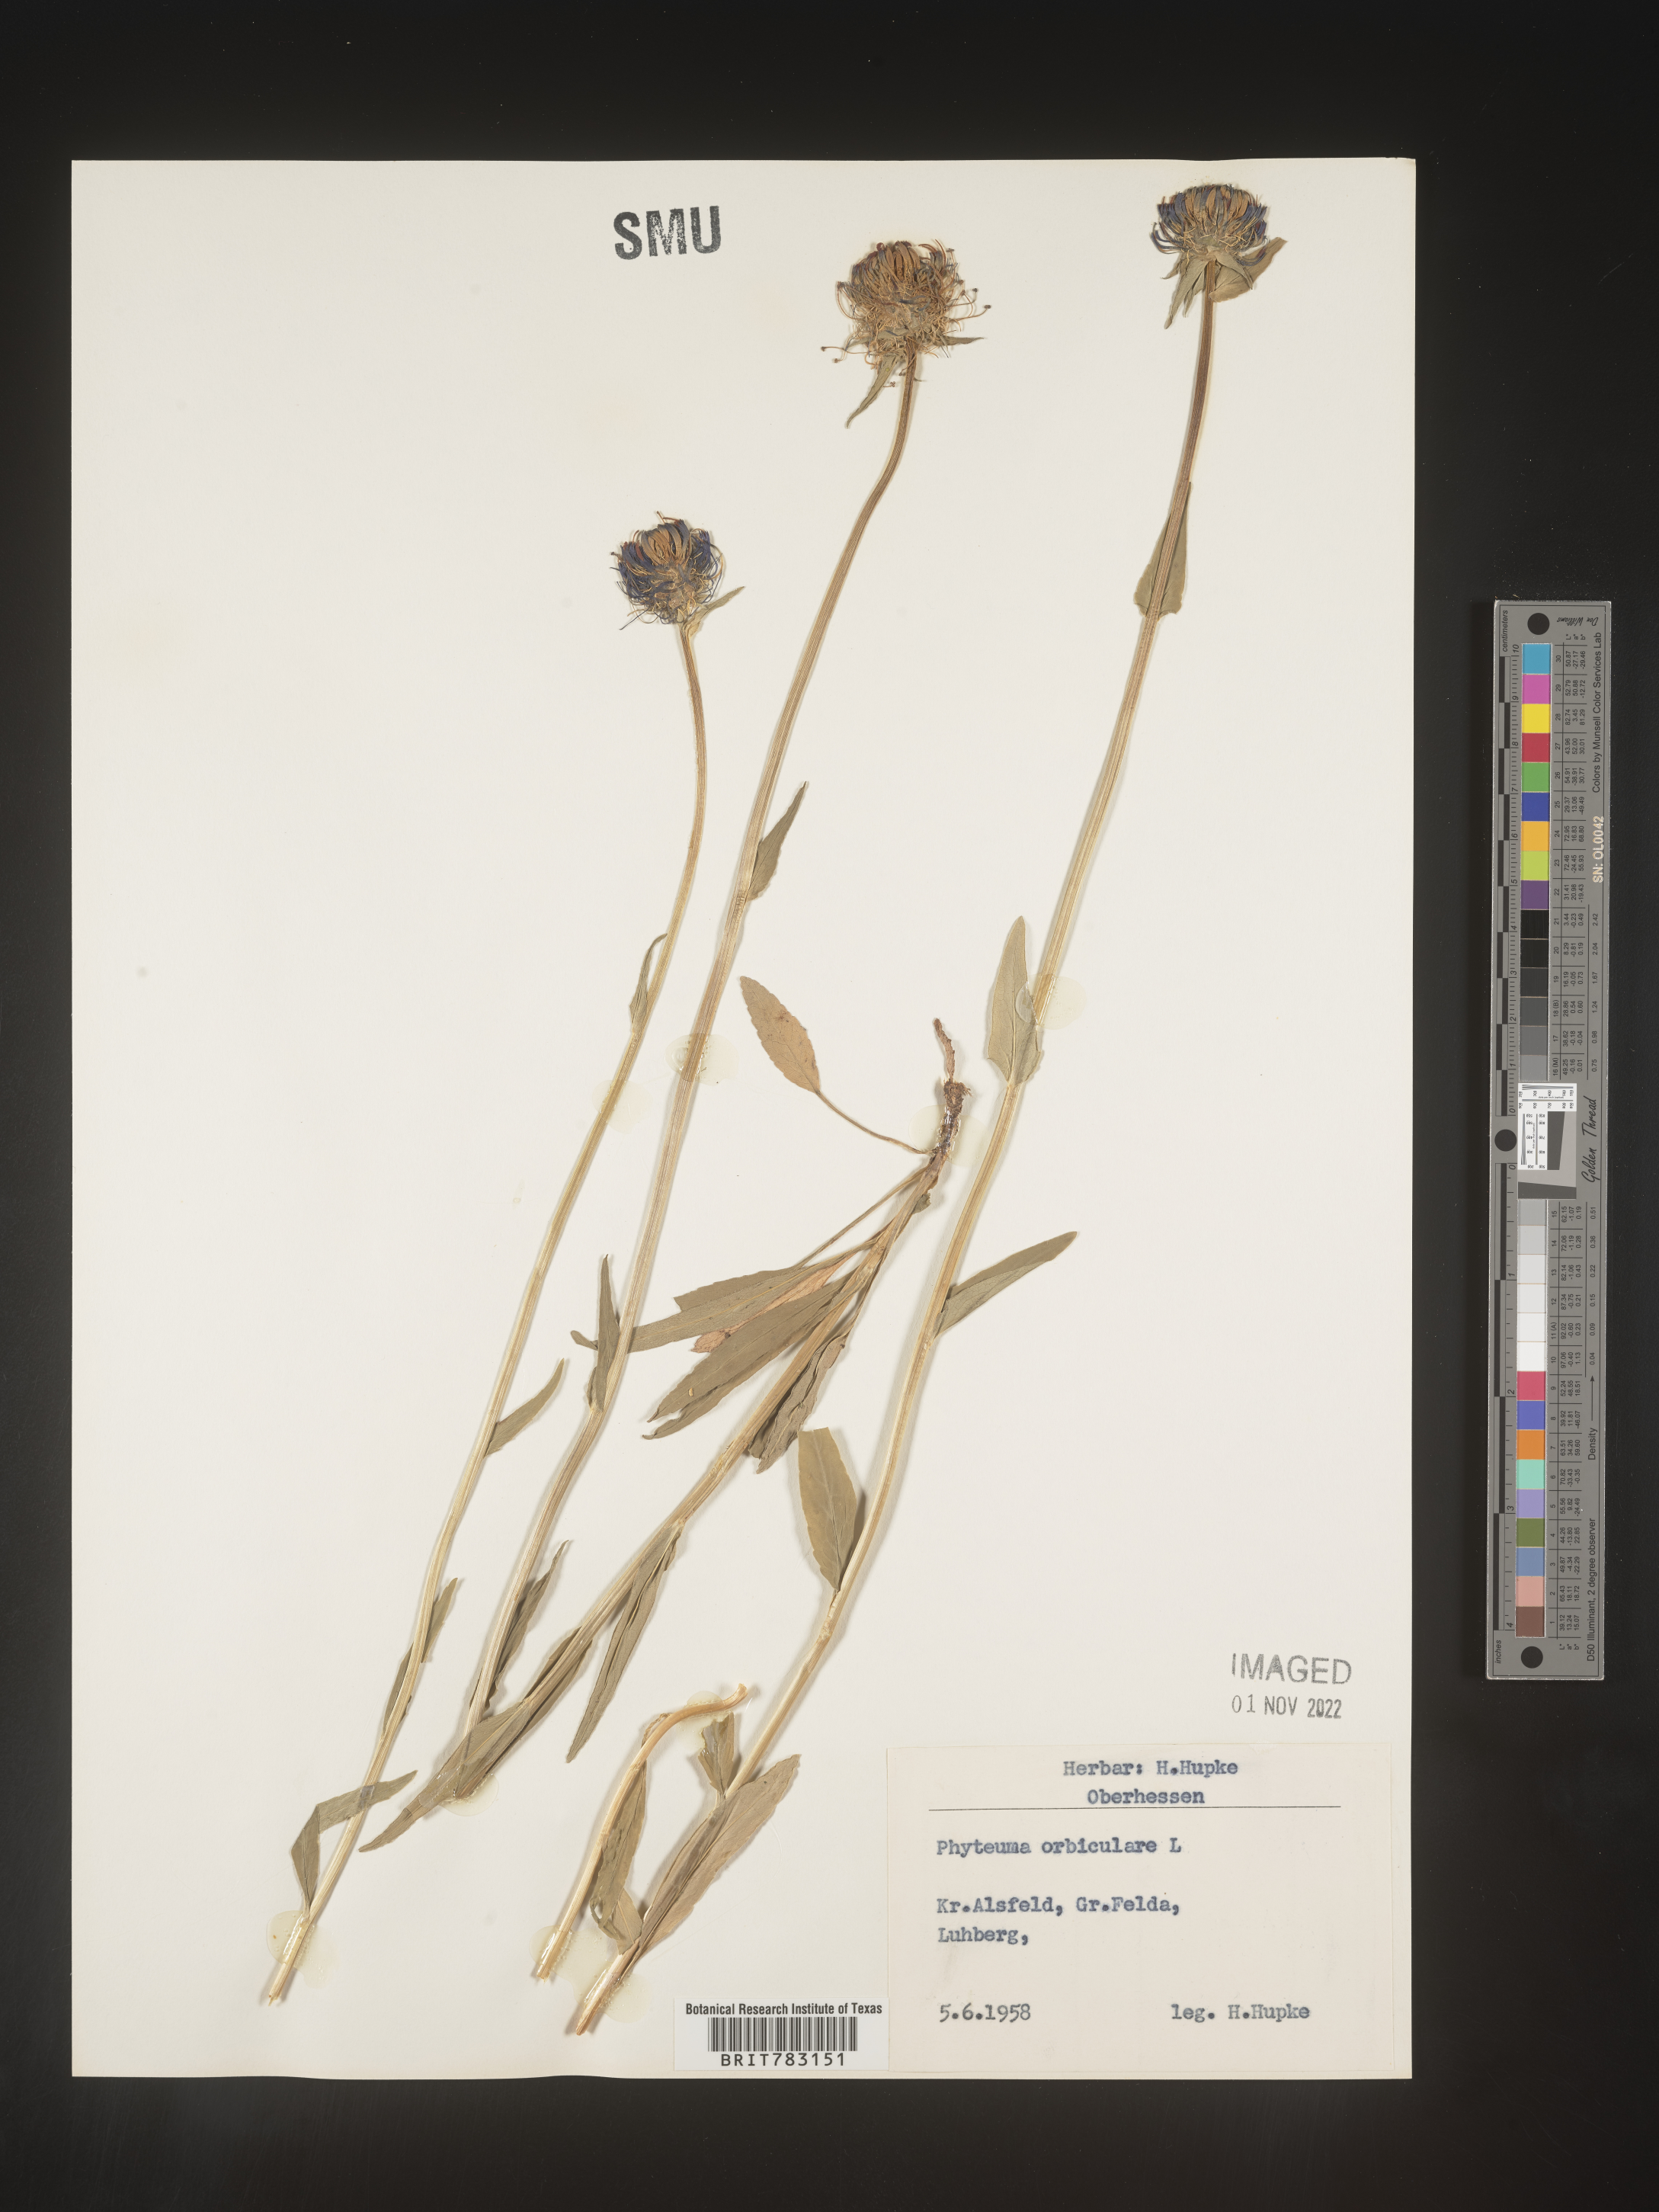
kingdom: Plantae
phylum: Tracheophyta
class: Magnoliopsida
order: Asterales
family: Campanulaceae
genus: Phyteuma
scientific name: Phyteuma
